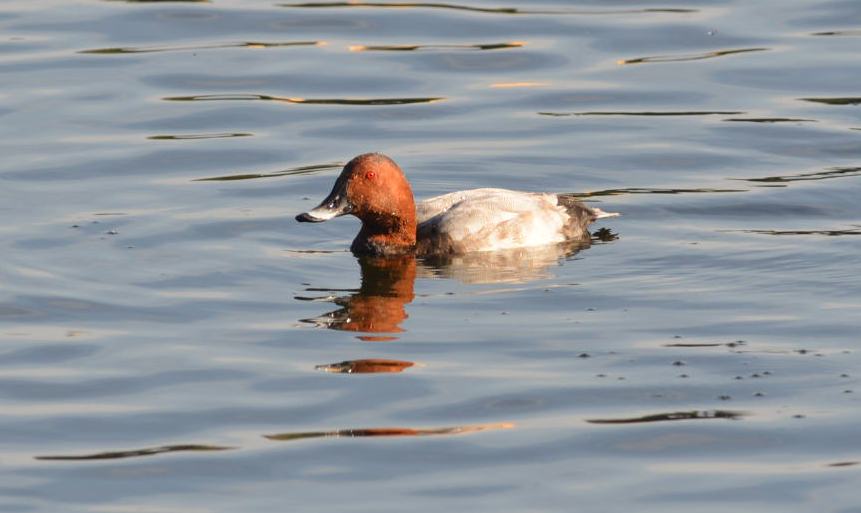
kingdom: Animalia
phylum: Chordata
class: Aves
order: Anseriformes
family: Anatidae
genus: Aythya
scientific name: Aythya ferina
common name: Common pochard
